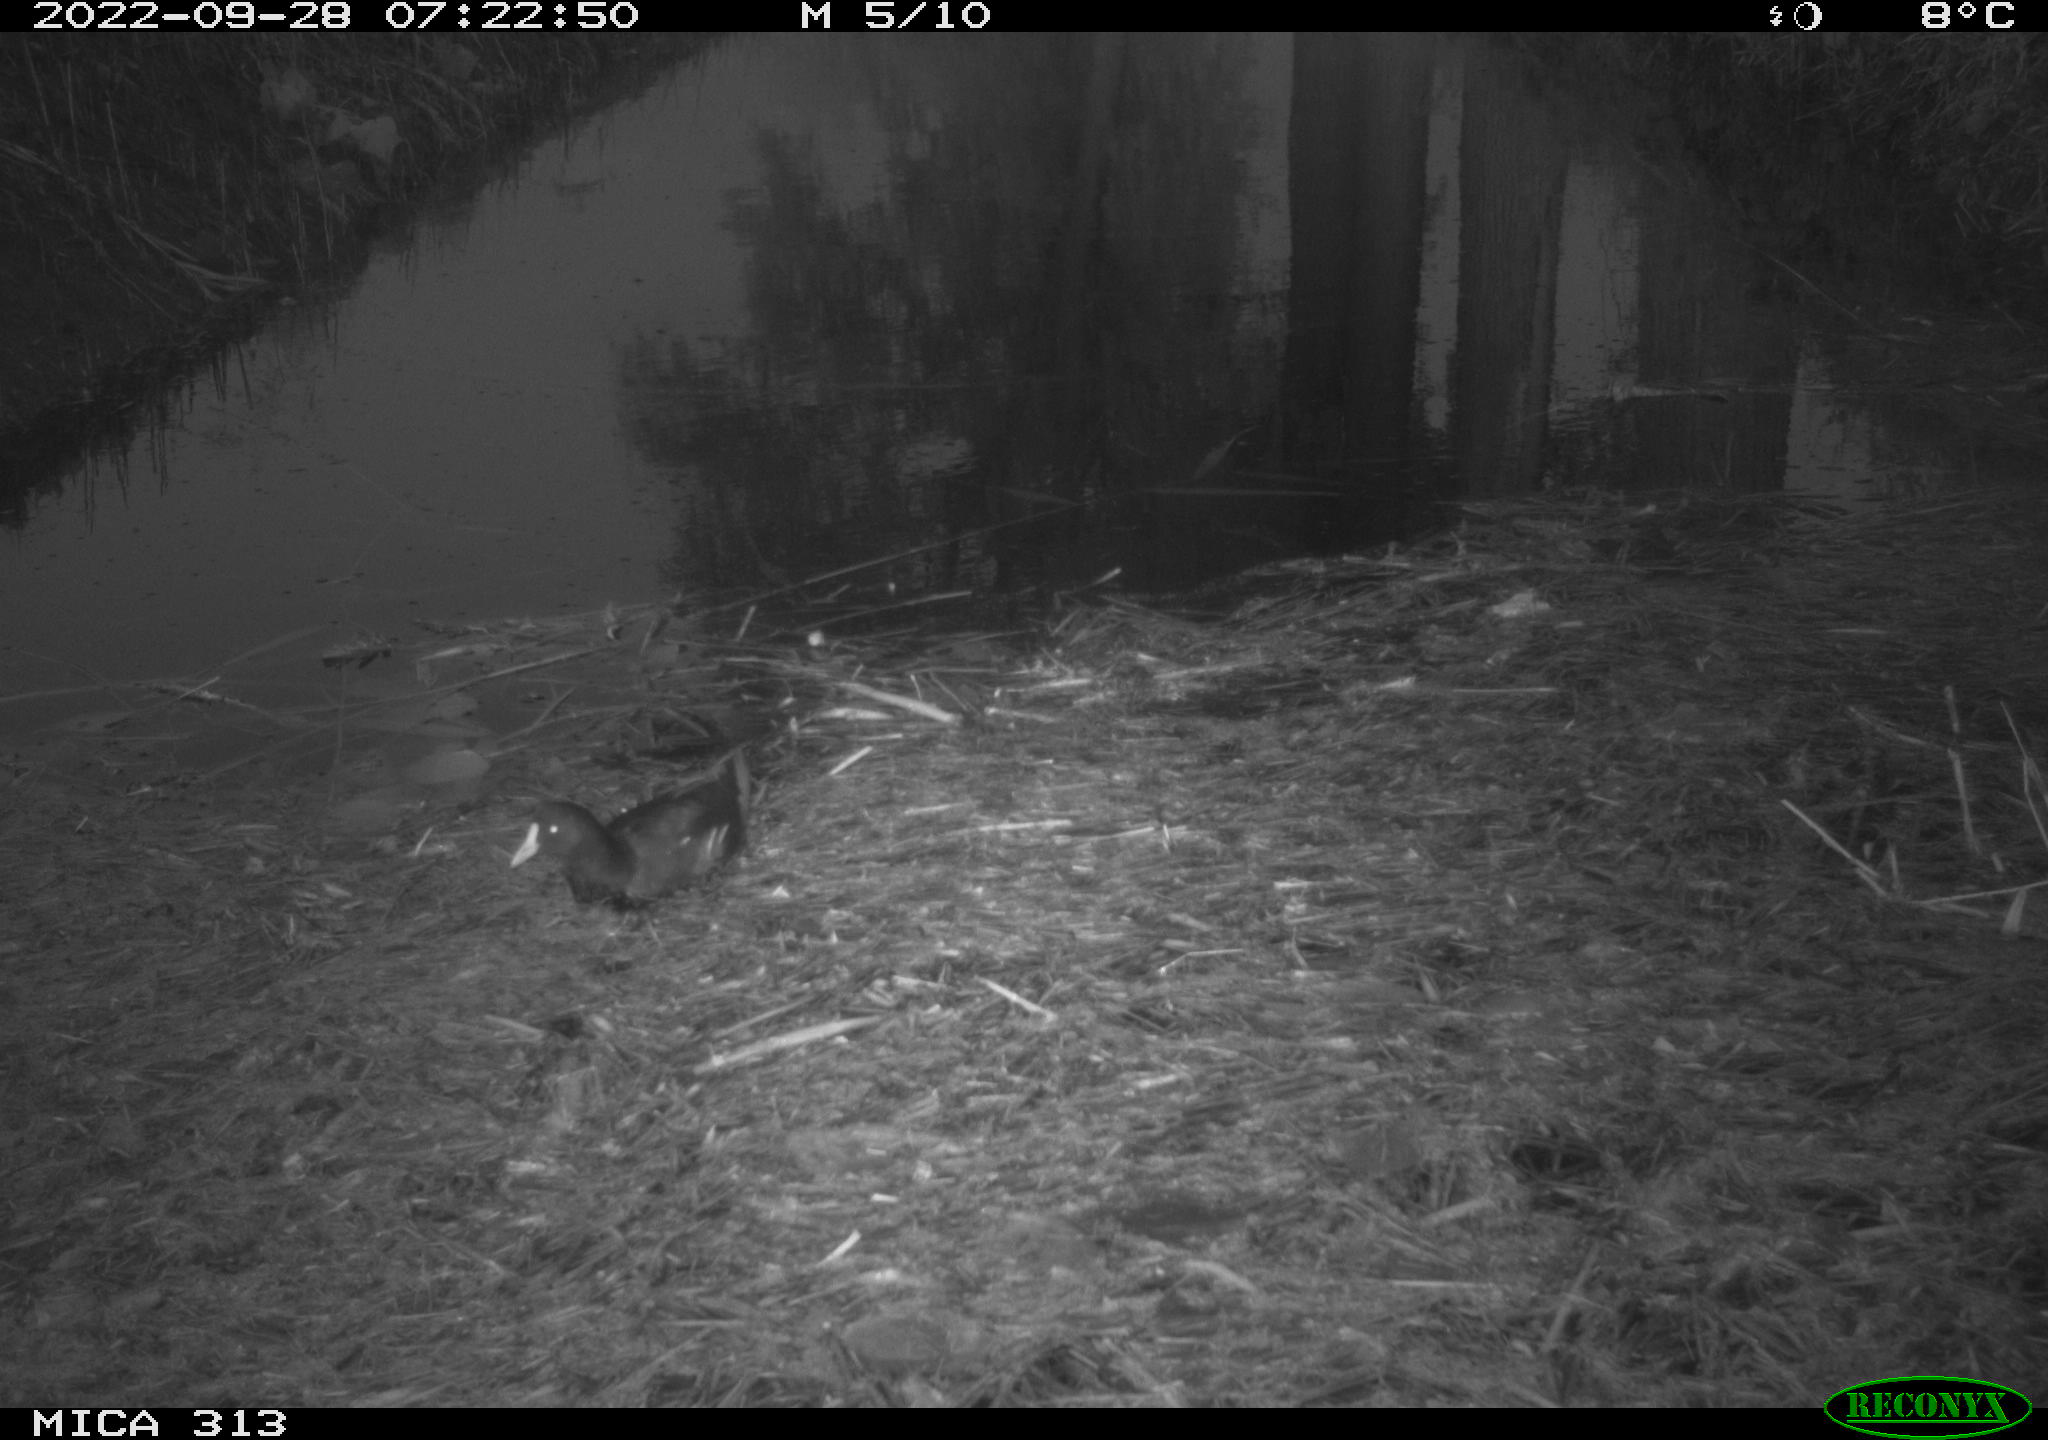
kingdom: Animalia
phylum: Chordata
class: Aves
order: Gruiformes
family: Rallidae
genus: Gallinula
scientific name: Gallinula chloropus
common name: Common moorhen
